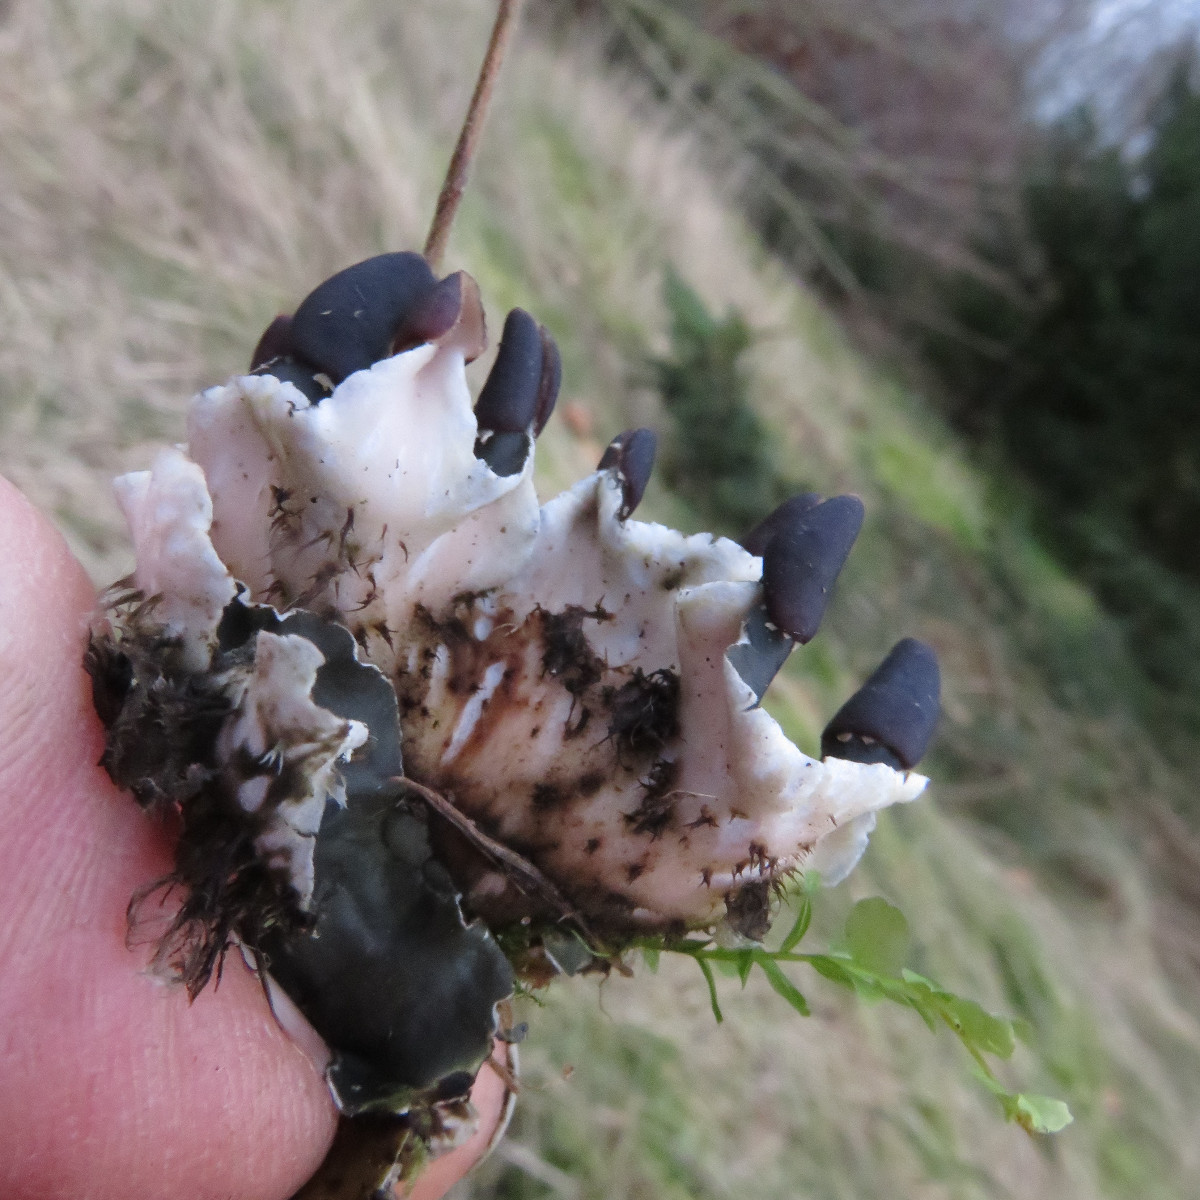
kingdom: Fungi
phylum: Ascomycota
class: Lecanoromycetes
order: Peltigerales
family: Peltigeraceae
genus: Peltigera
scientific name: Peltigera neckeri
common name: glinsende skjoldlav
